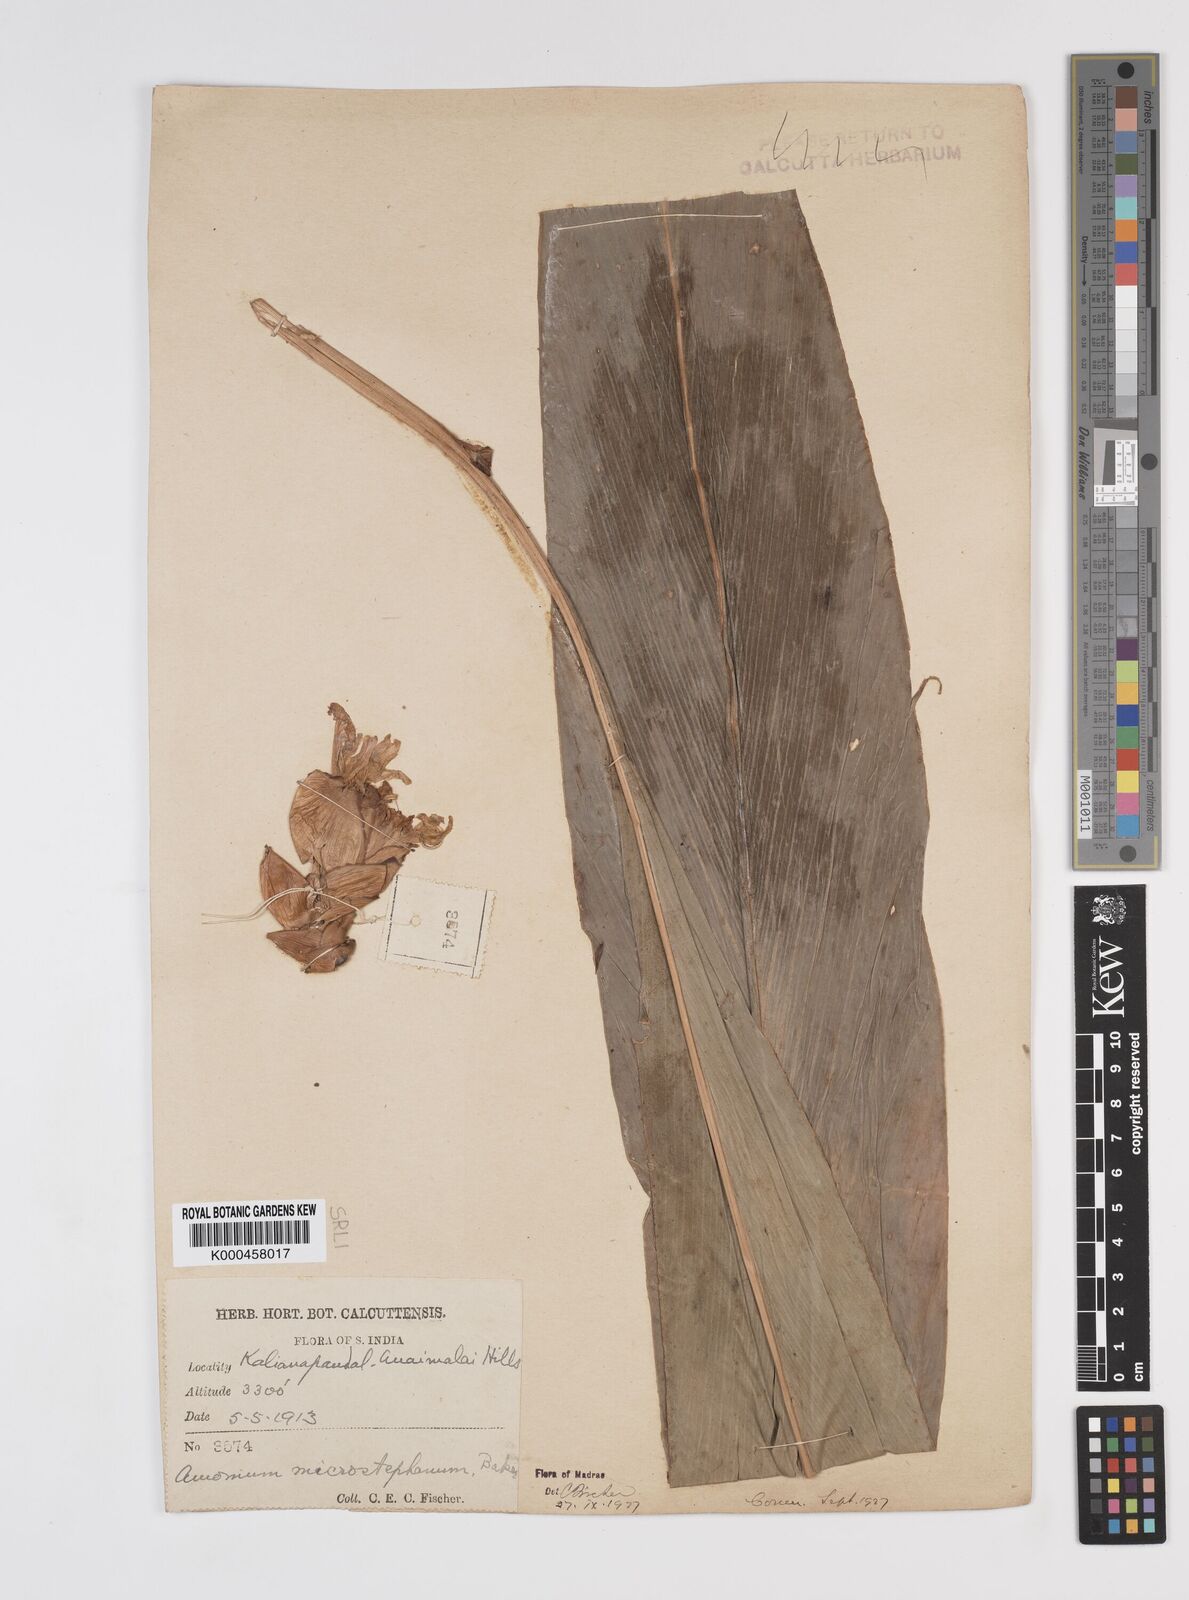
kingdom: Plantae
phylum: Tracheophyta
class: Liliopsida
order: Zingiberales
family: Zingiberaceae
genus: Amomum
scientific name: Amomum pterocarpum
